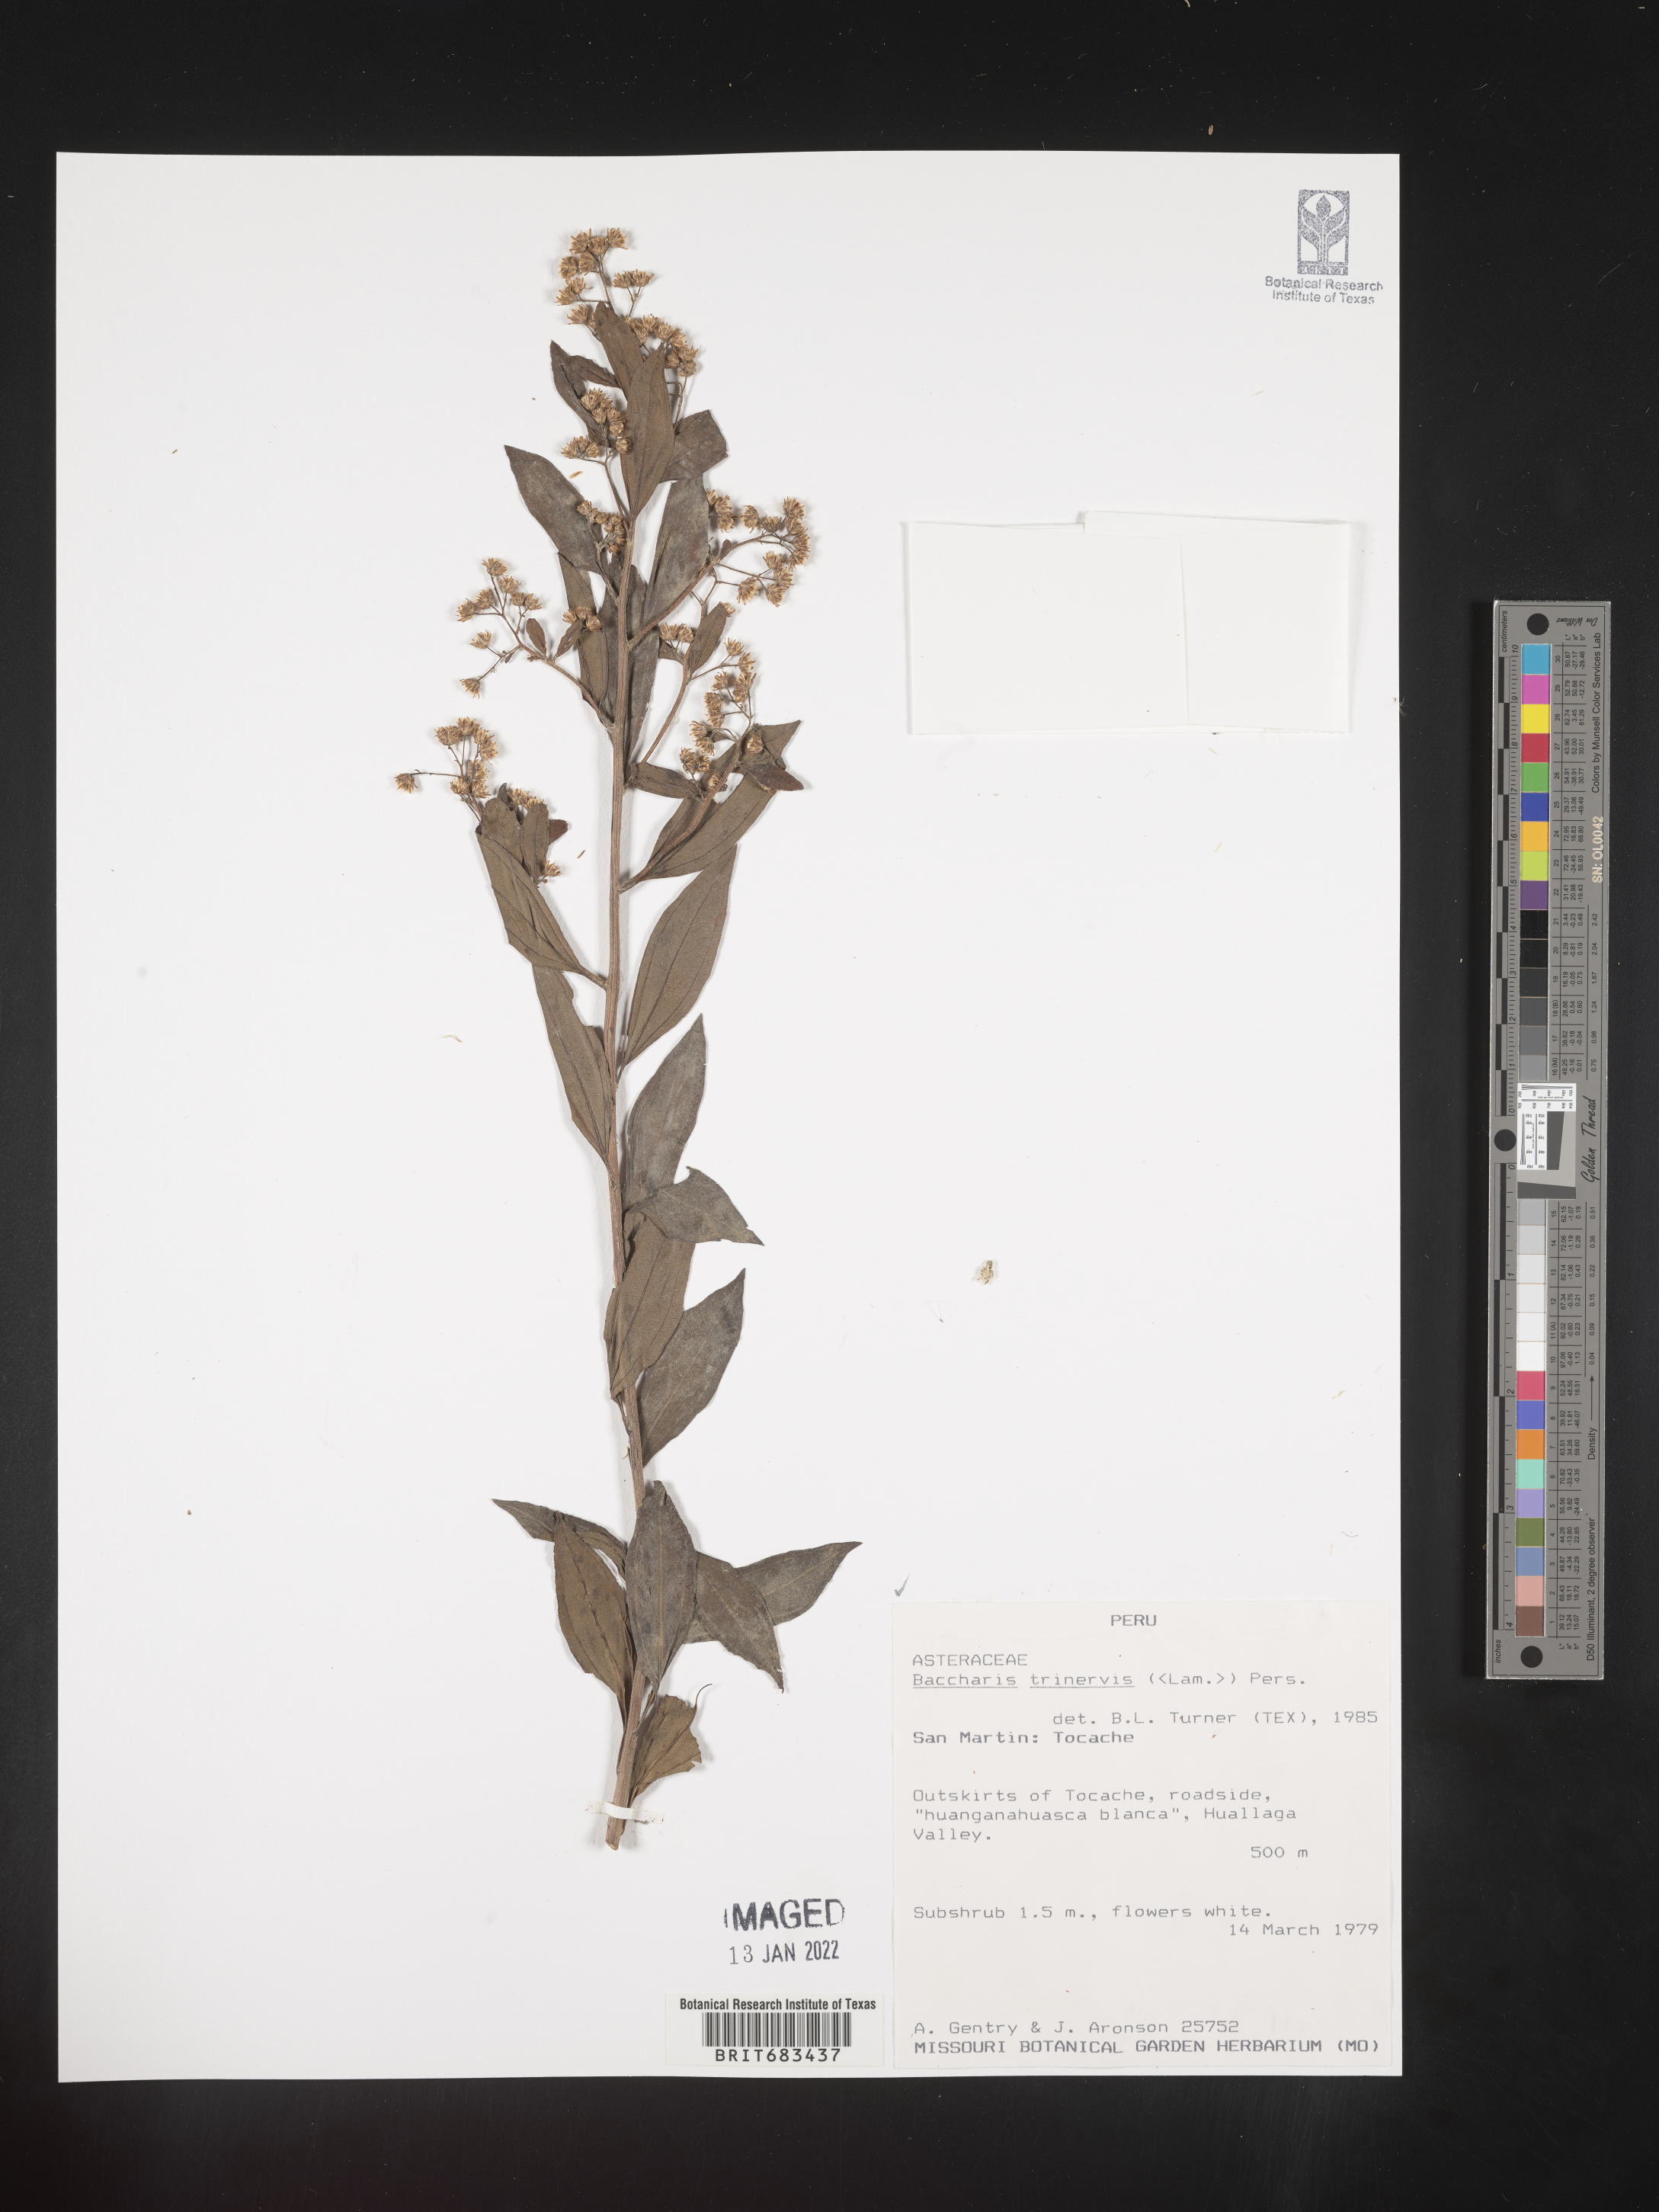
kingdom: Plantae
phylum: Tracheophyta
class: Magnoliopsida
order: Asterales
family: Asteraceae
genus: Baccharis
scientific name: Baccharis trinervis
